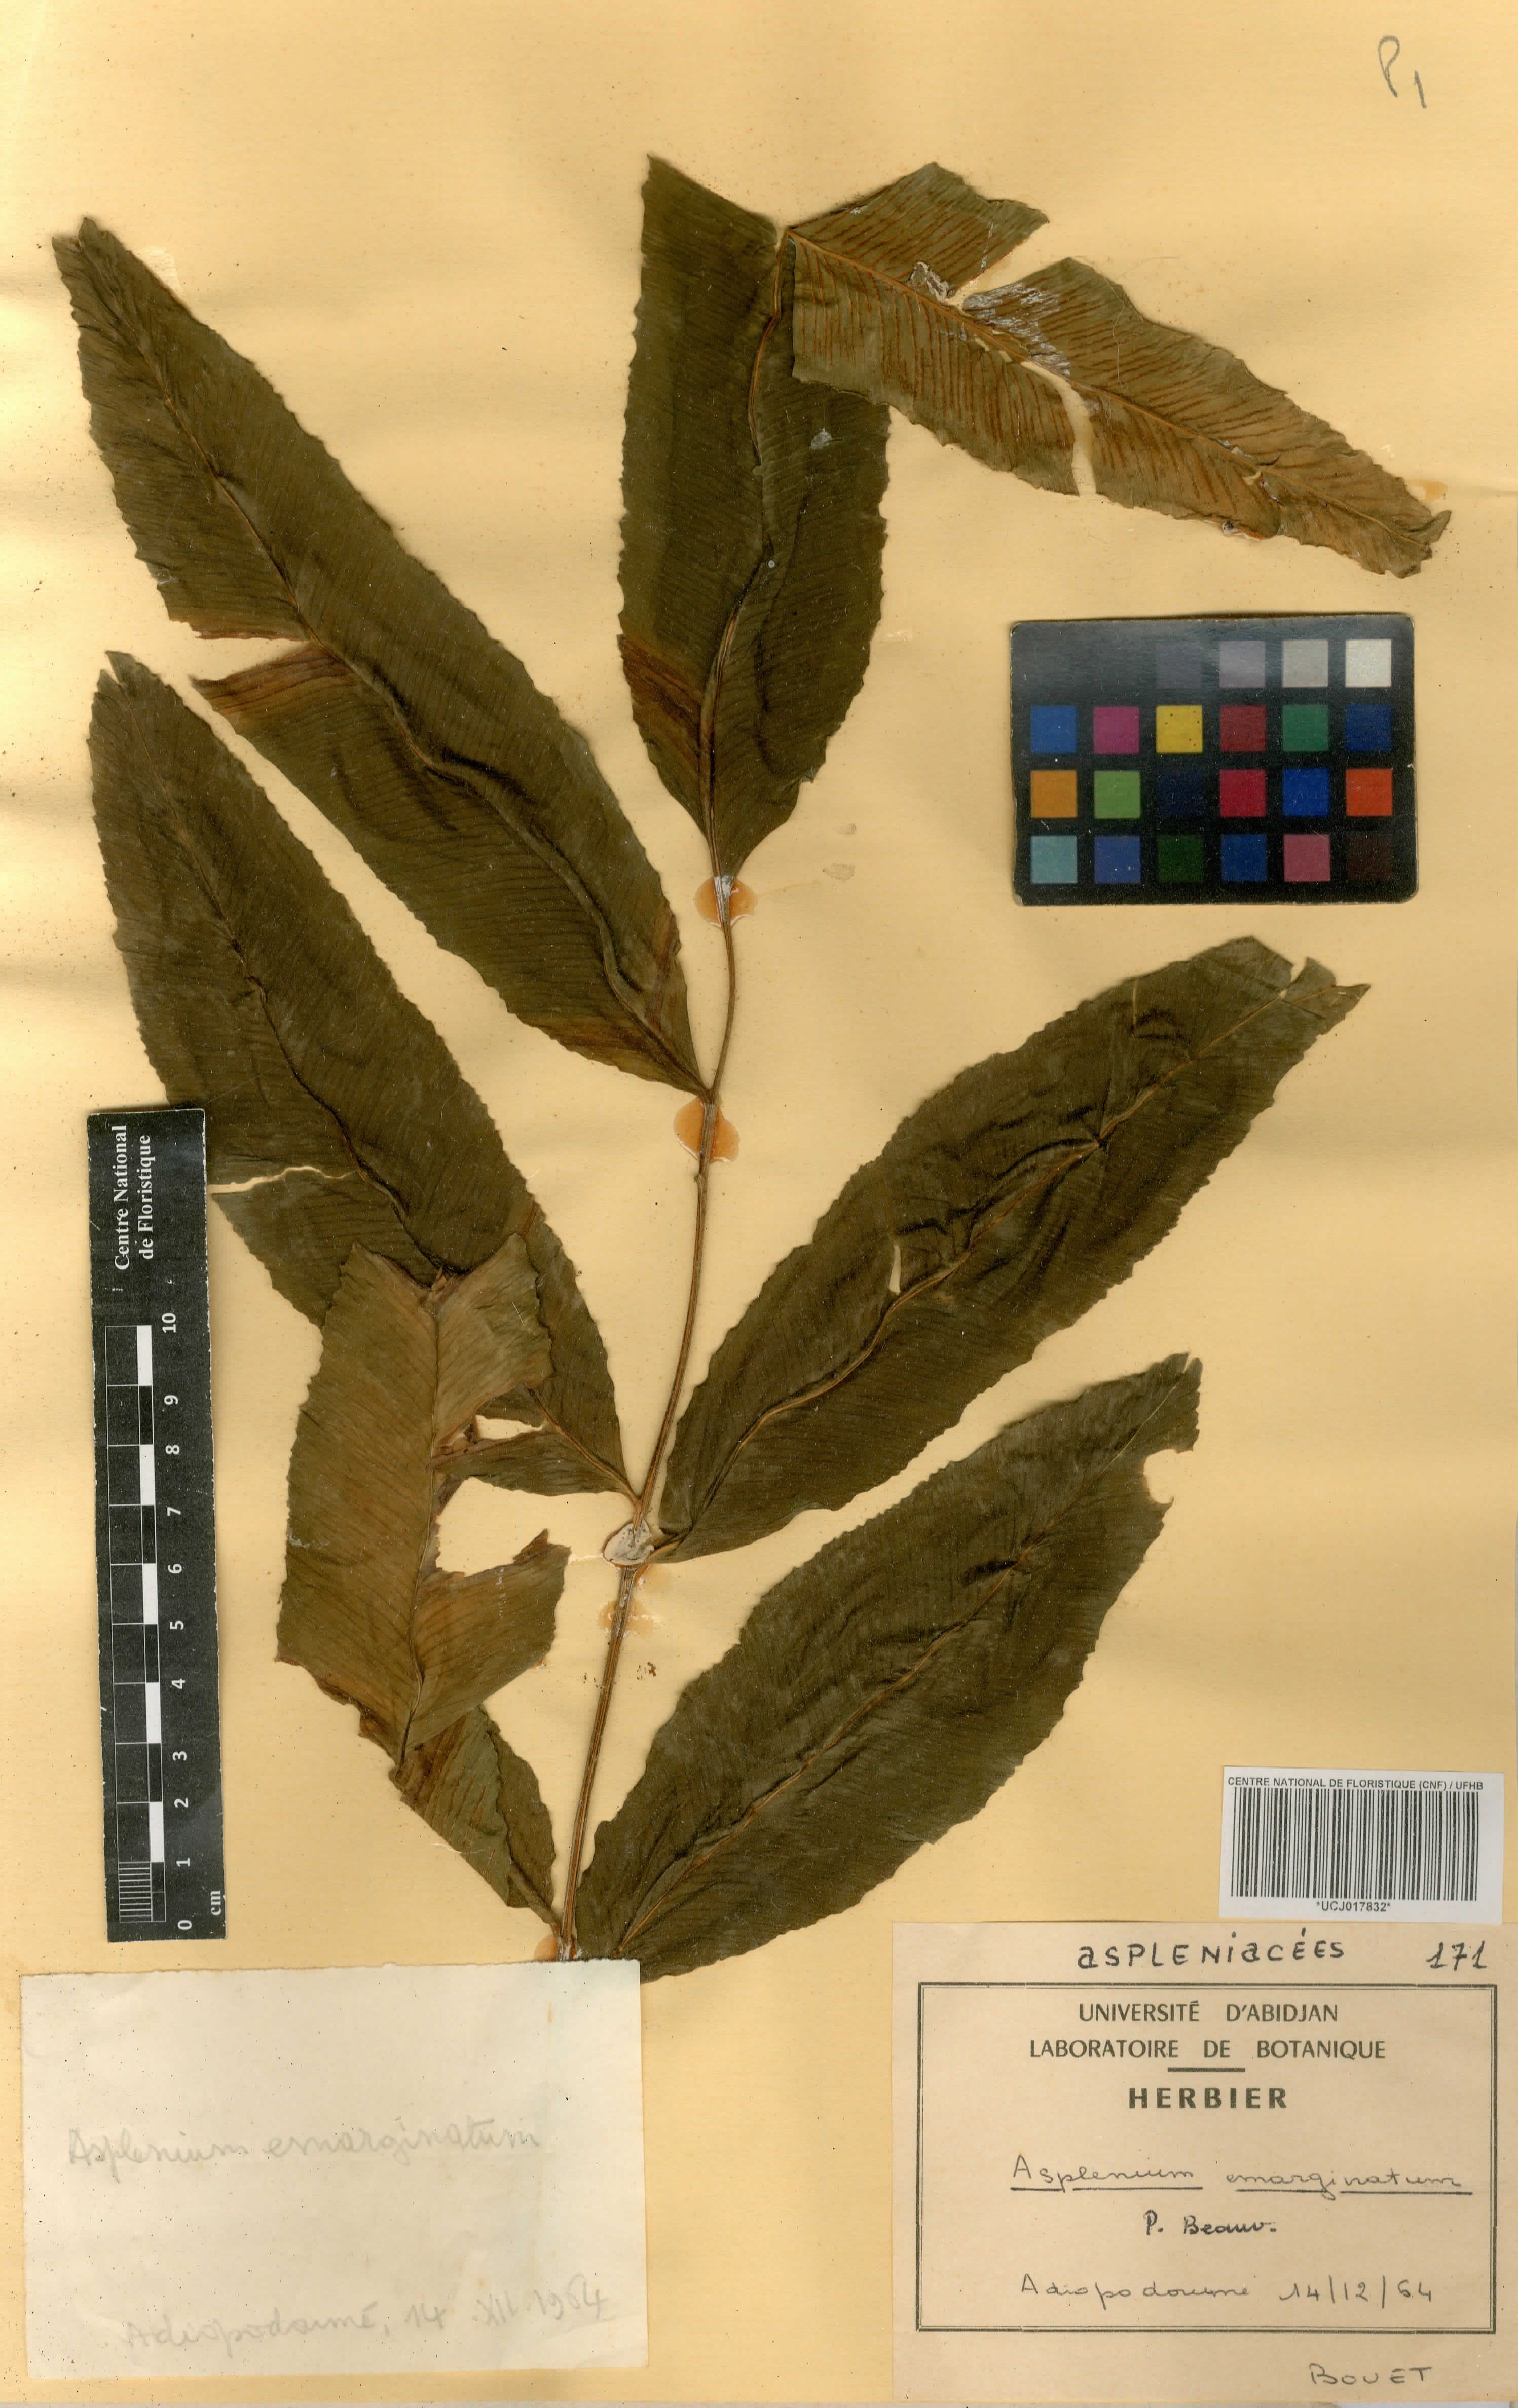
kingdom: Plantae
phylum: Tracheophyta
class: Polypodiopsida
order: Polypodiales
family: Aspleniaceae
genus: Asplenium
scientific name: Asplenium emarginatum
